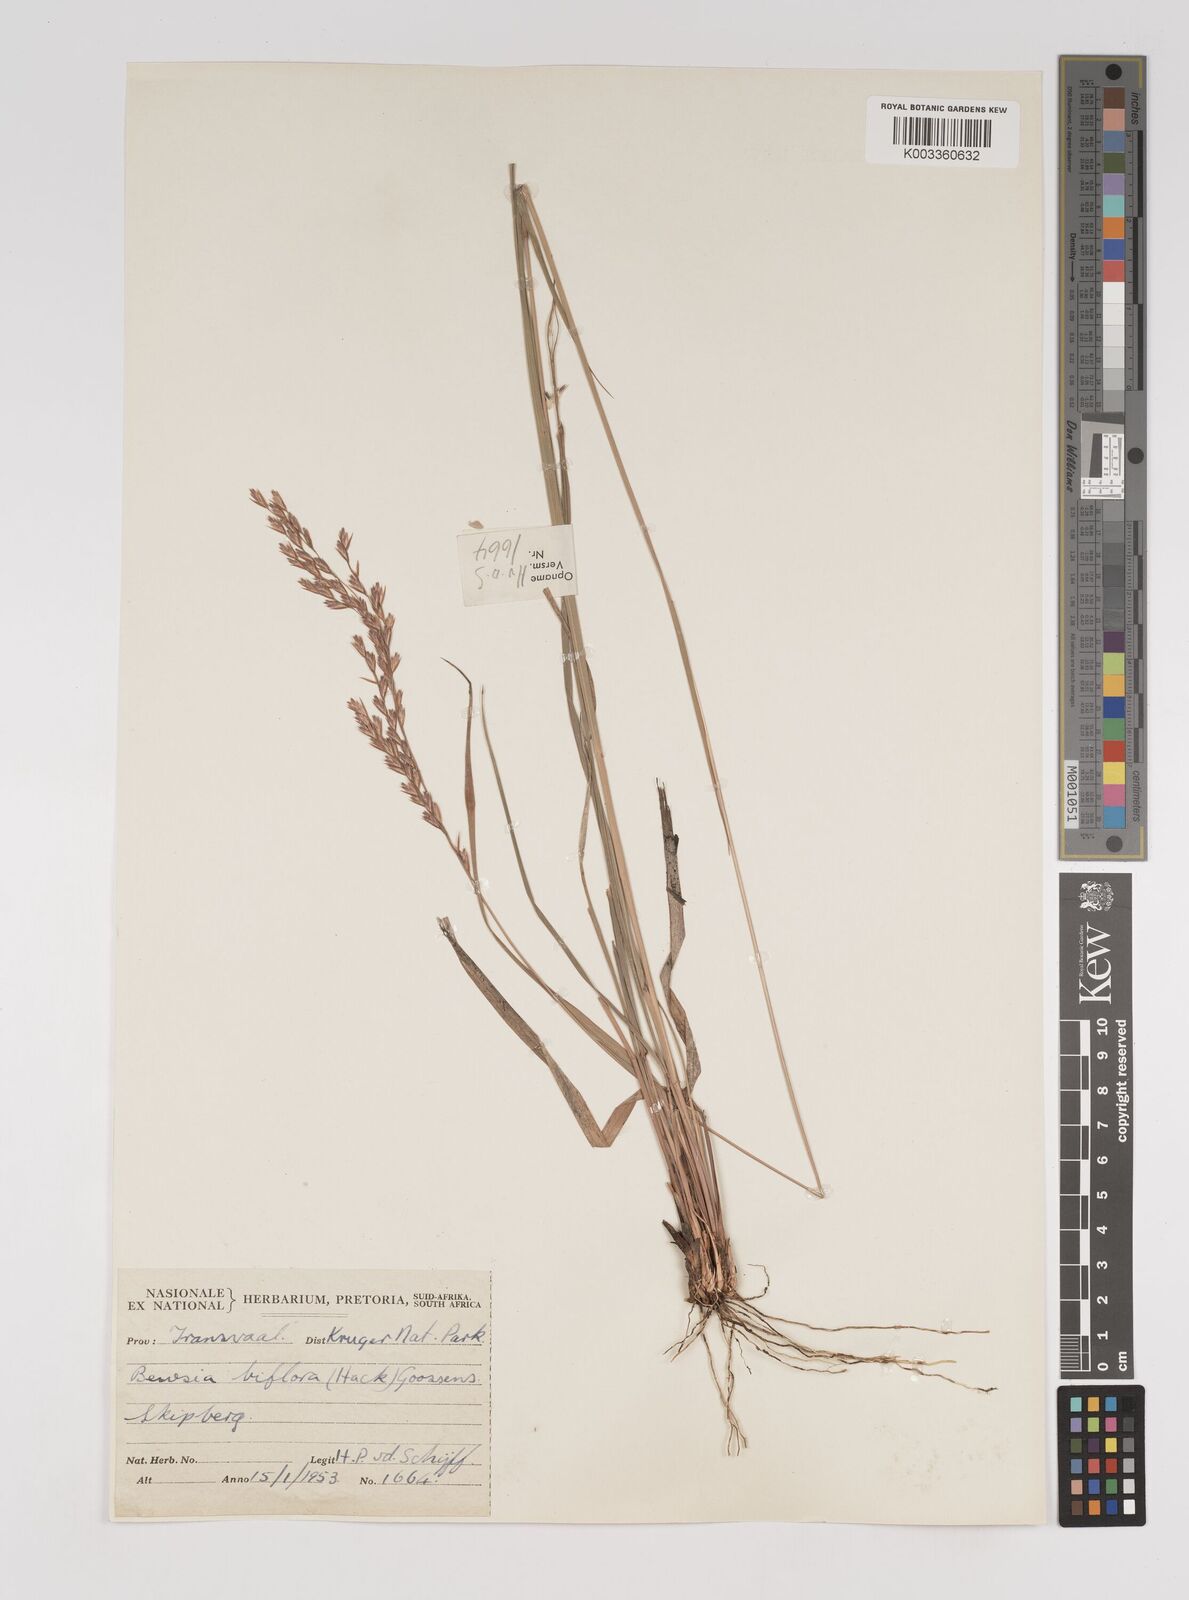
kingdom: Plantae
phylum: Tracheophyta
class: Liliopsida
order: Poales
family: Poaceae
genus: Bewsia
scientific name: Bewsia biflora
